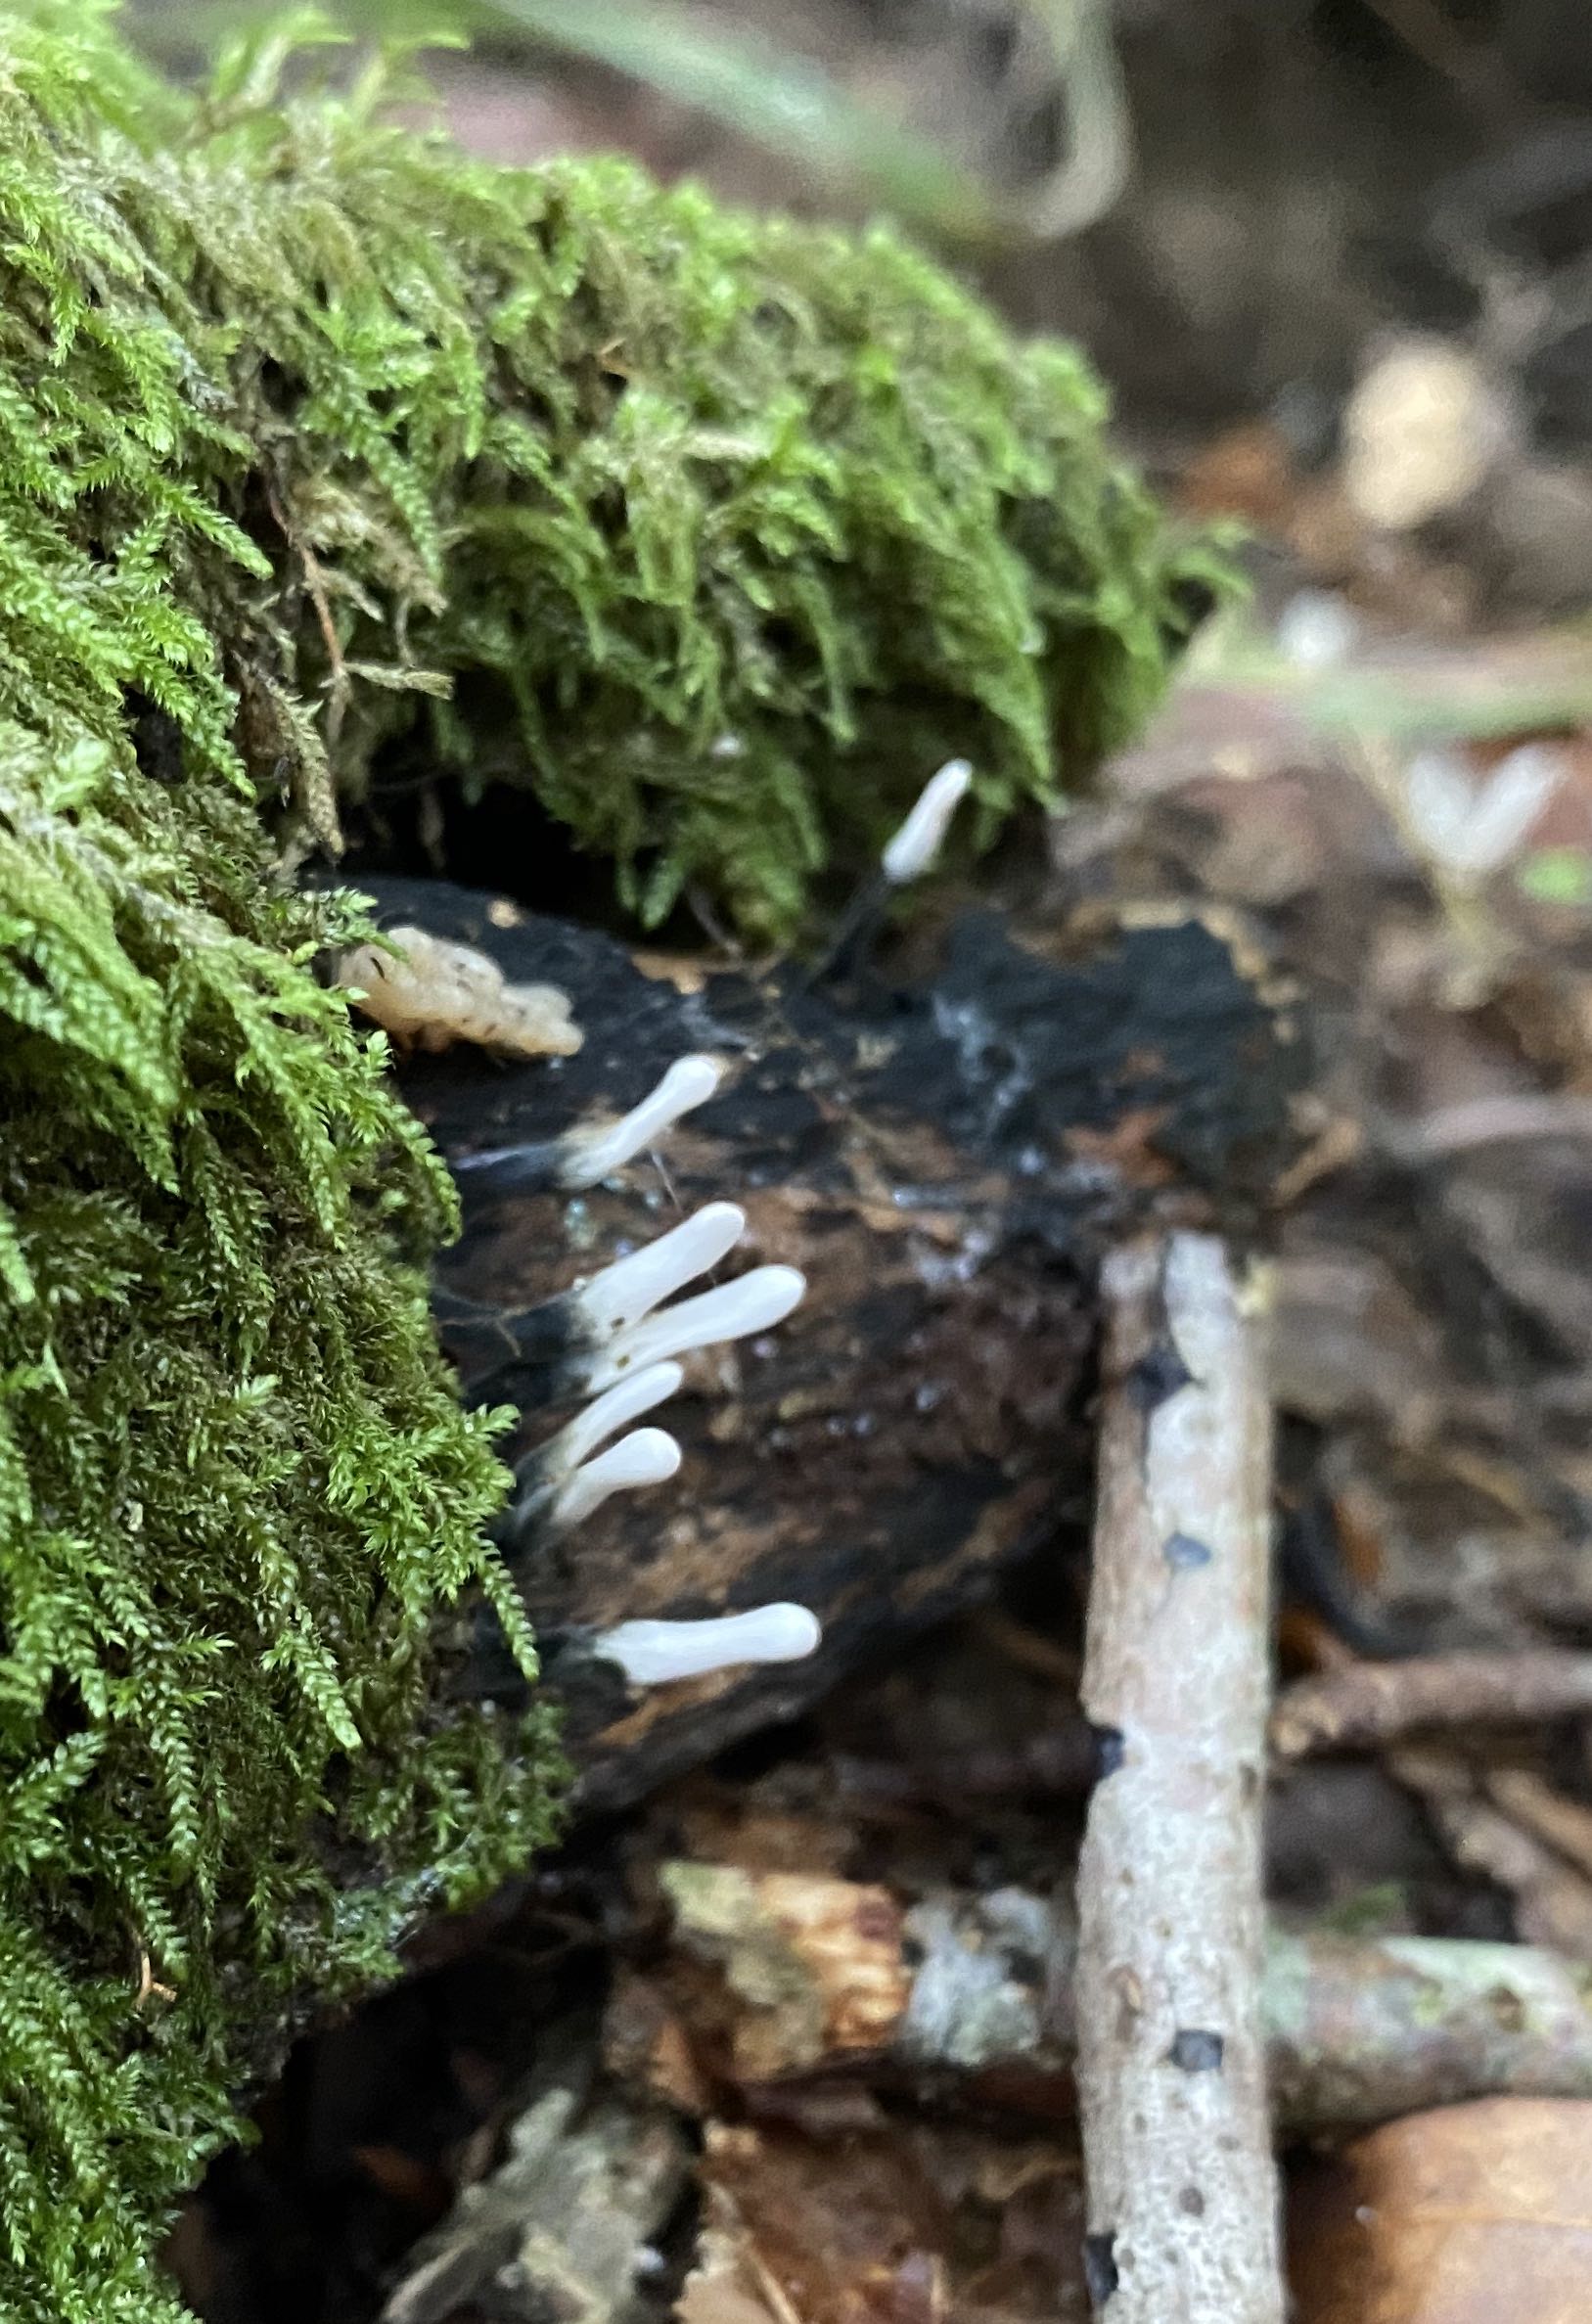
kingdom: Fungi
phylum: Ascomycota
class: Sordariomycetes
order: Xylariales
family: Xylariaceae
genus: Xylaria
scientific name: Xylaria hypoxylon
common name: grenet stødsvamp
